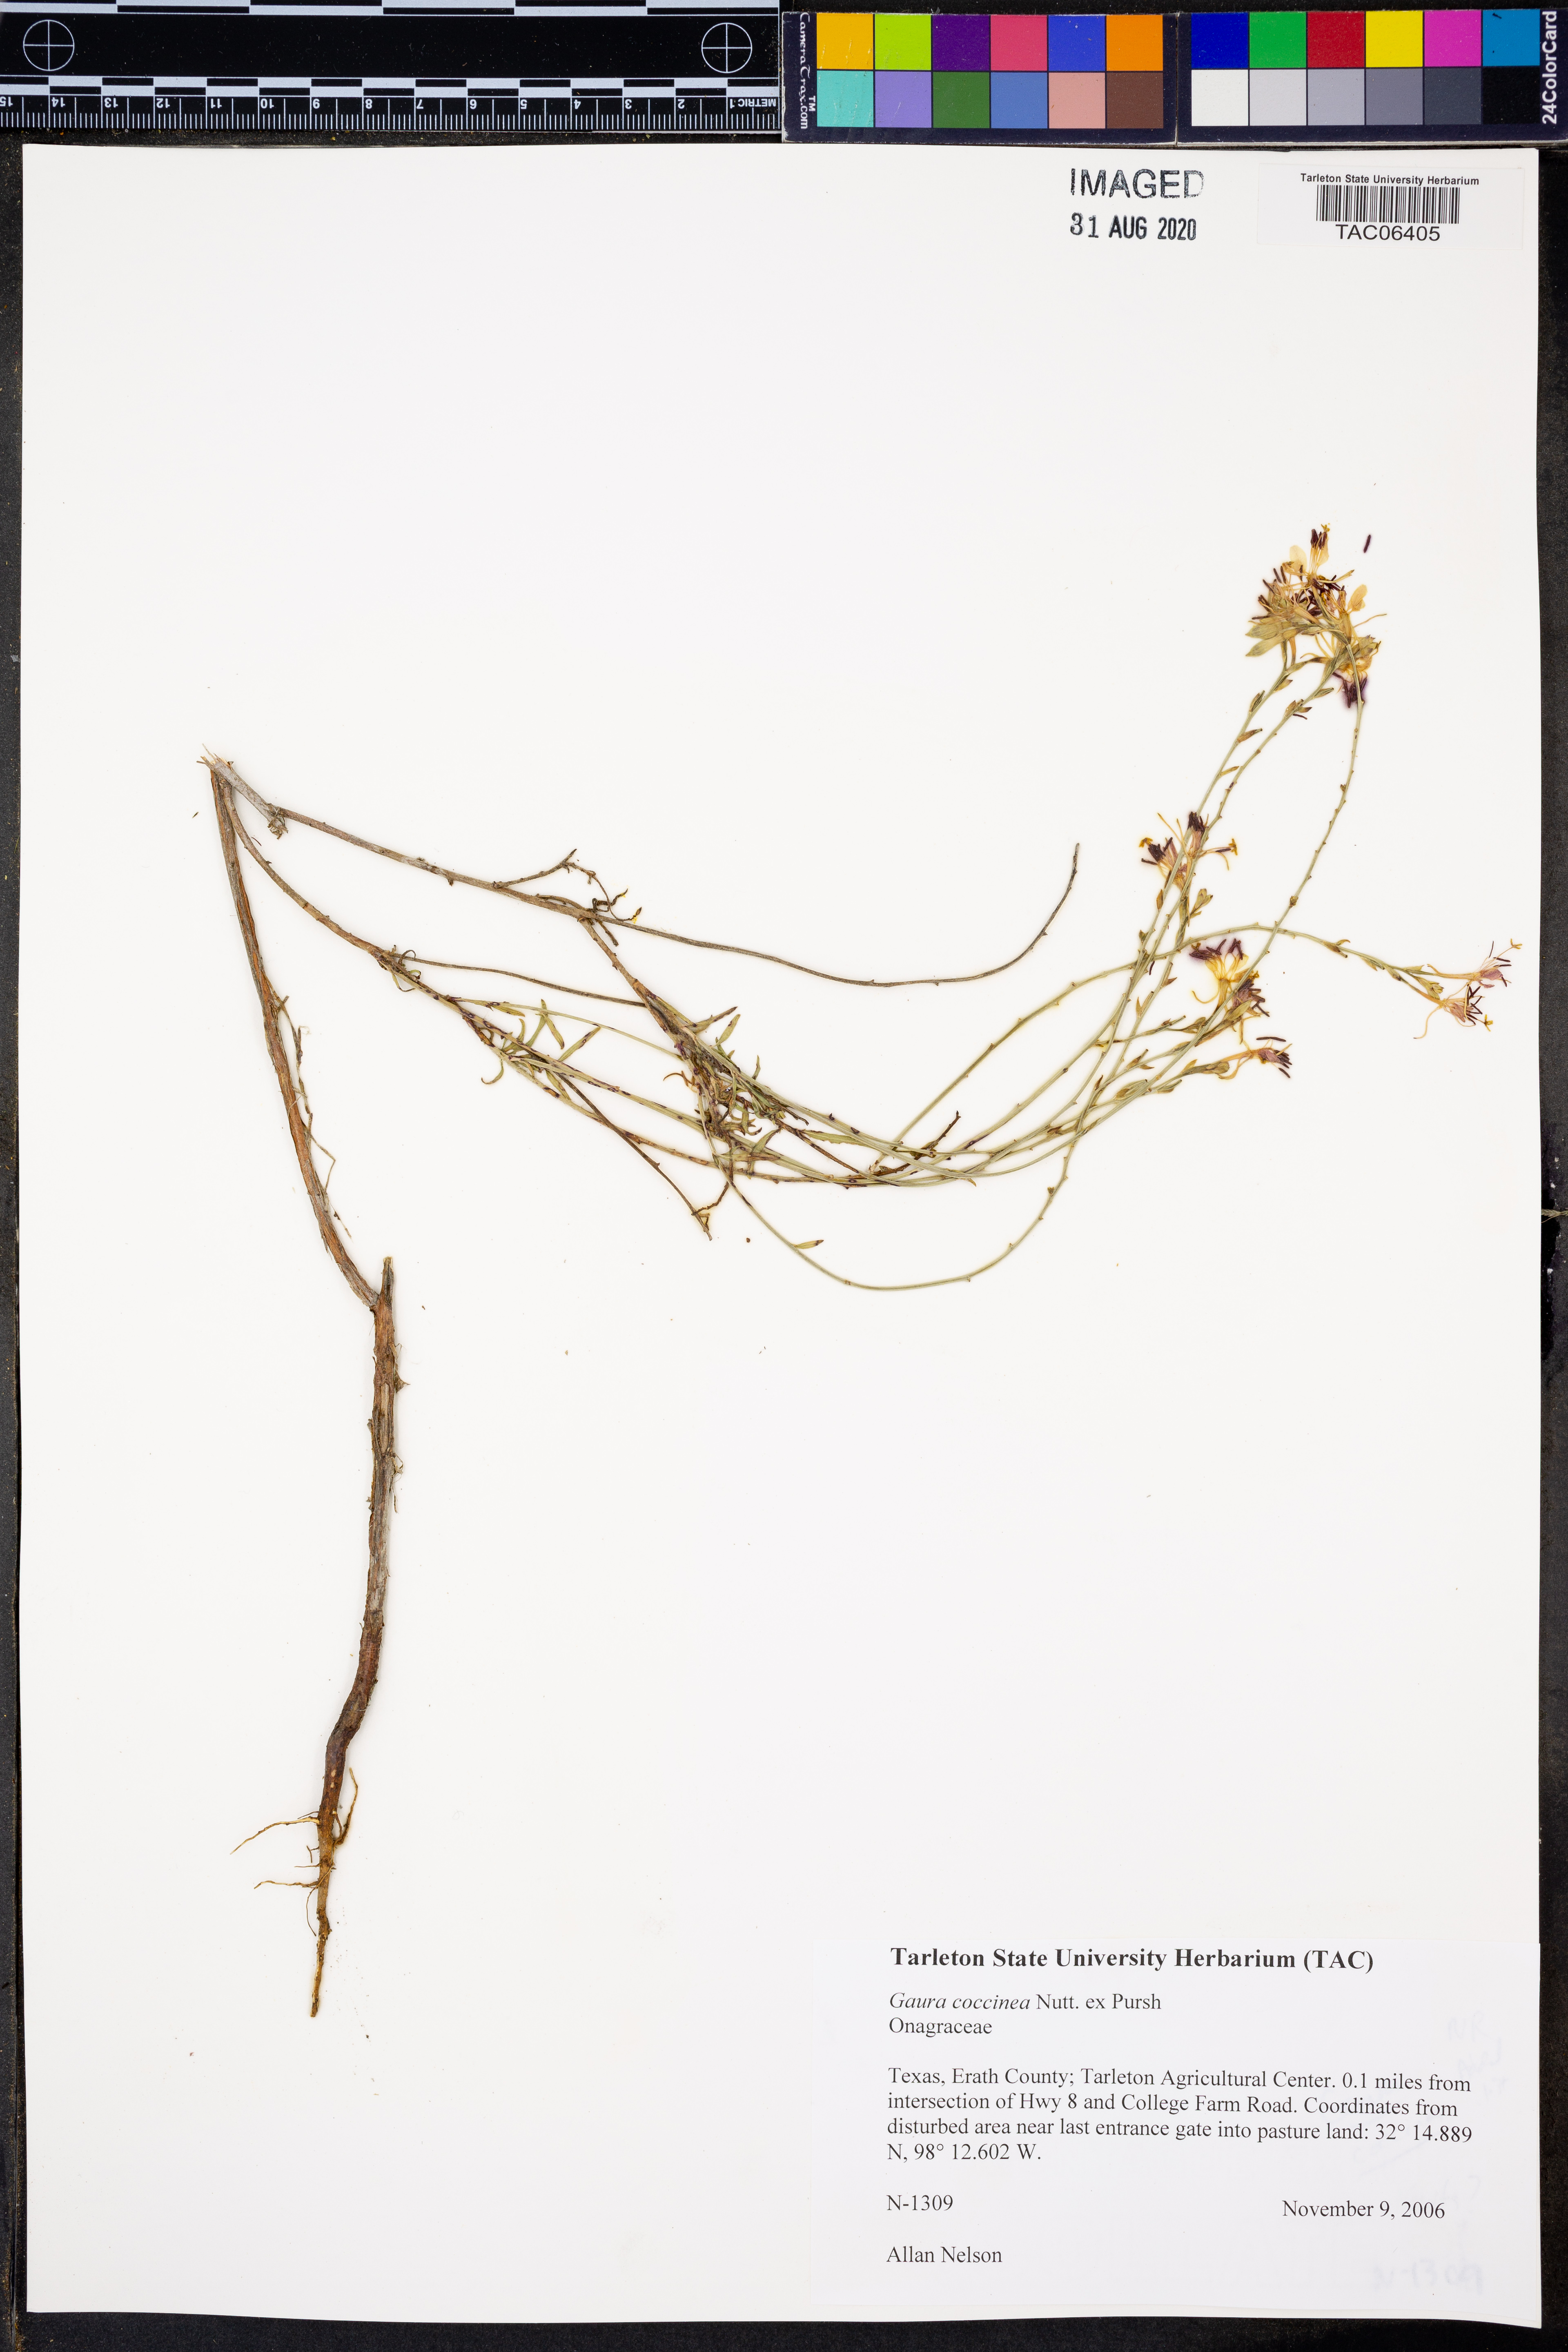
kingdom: Plantae
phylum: Tracheophyta
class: Magnoliopsida
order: Myrtales
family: Onagraceae
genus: Oenothera
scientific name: Oenothera suffrutescens
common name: Scarlet beeblossom
